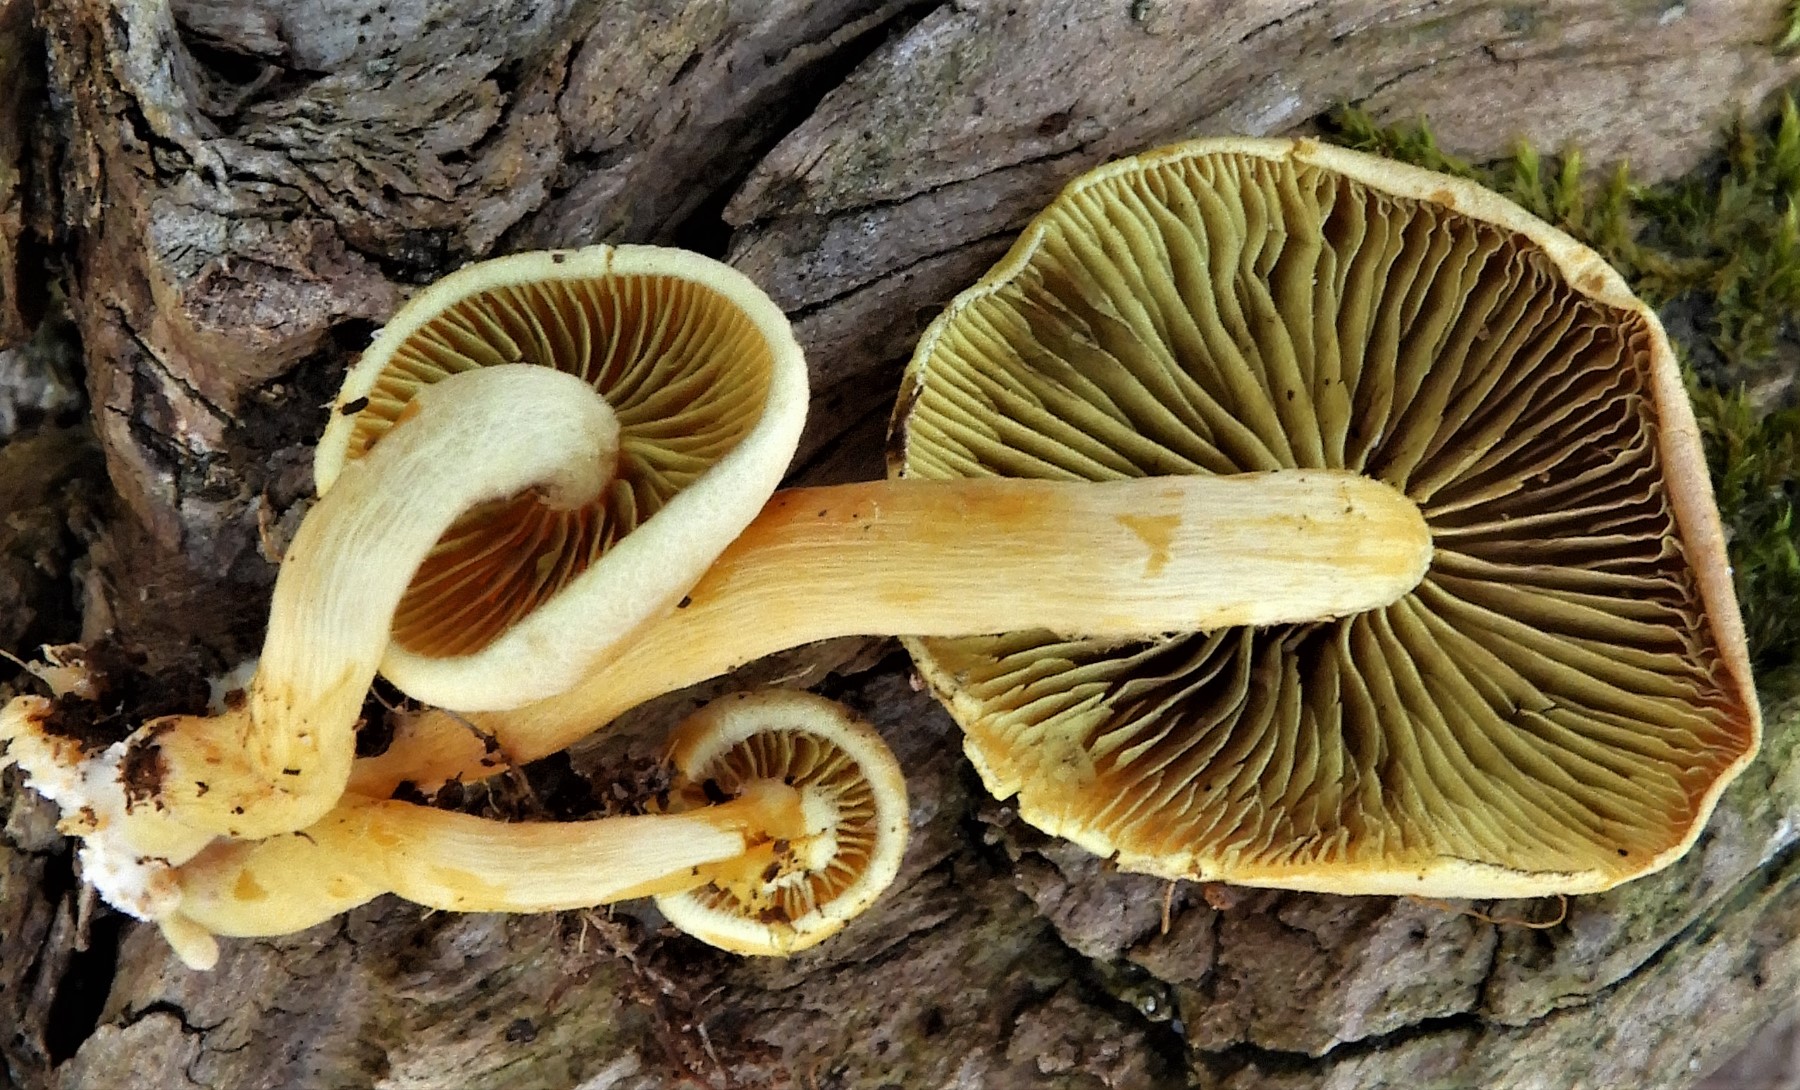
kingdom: Fungi
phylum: Basidiomycota
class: Agaricomycetes
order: Agaricales
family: Strophariaceae
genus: Hypholoma
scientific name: Hypholoma fasciculare
